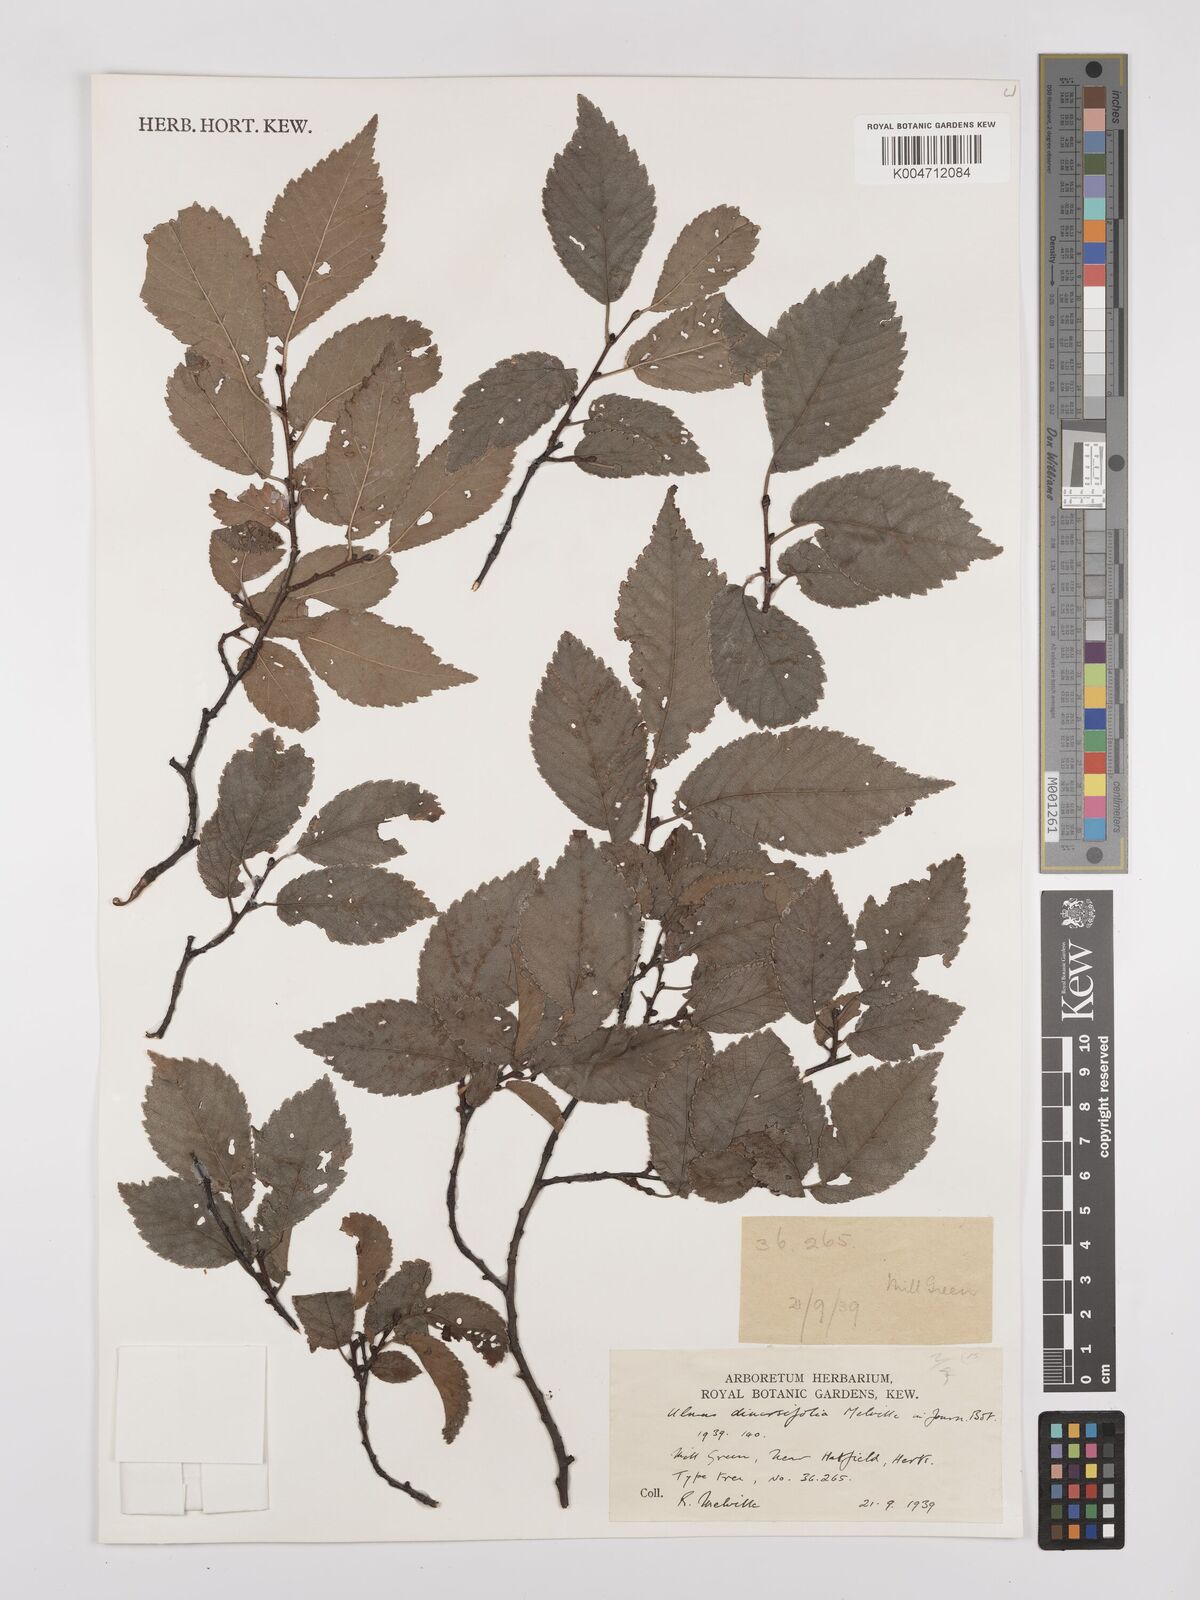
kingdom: Plantae
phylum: Tracheophyta
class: Magnoliopsida
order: Rosales
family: Ulmaceae
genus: Ulmus
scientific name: Ulmus minor
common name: Small-leaved elm
